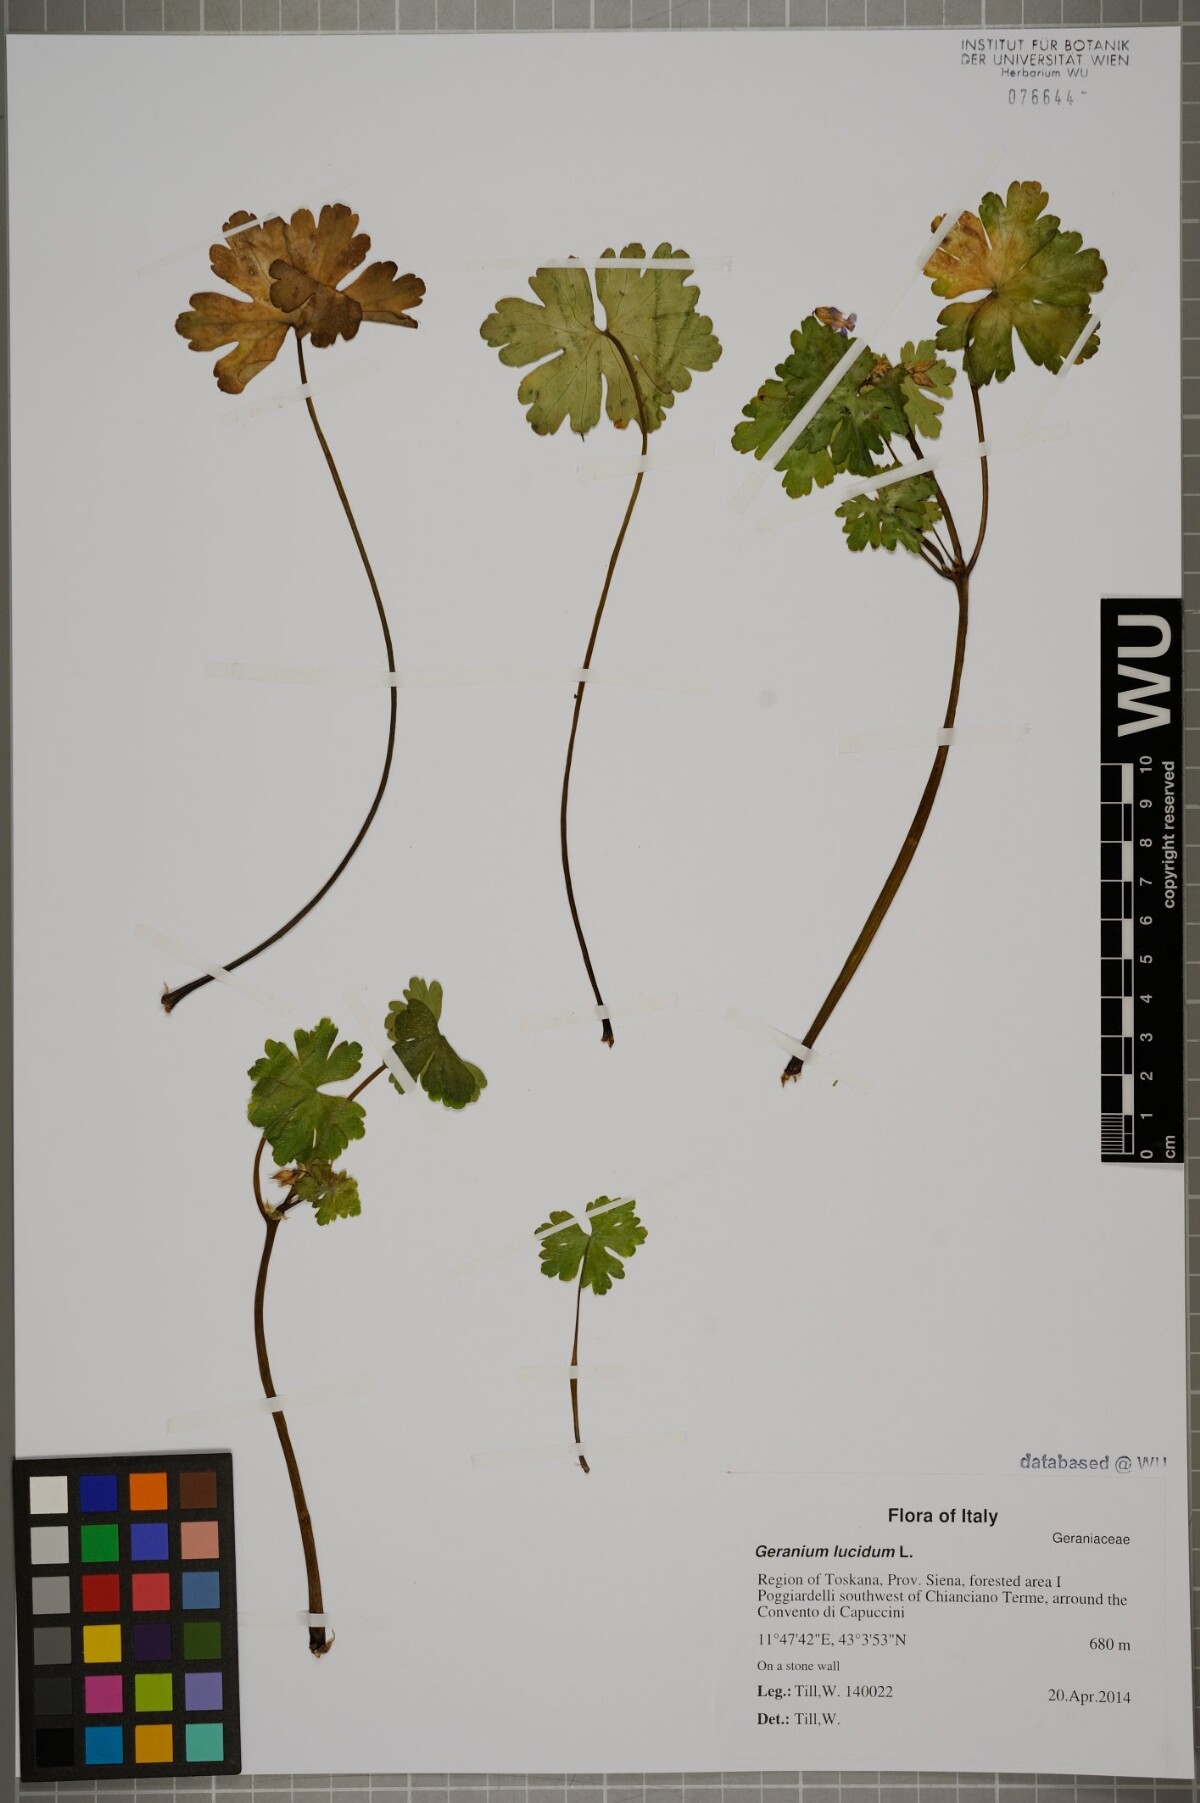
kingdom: Plantae
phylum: Tracheophyta
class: Magnoliopsida
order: Geraniales
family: Geraniaceae
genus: Geranium
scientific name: Geranium lucidum
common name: Shining crane's-bill
